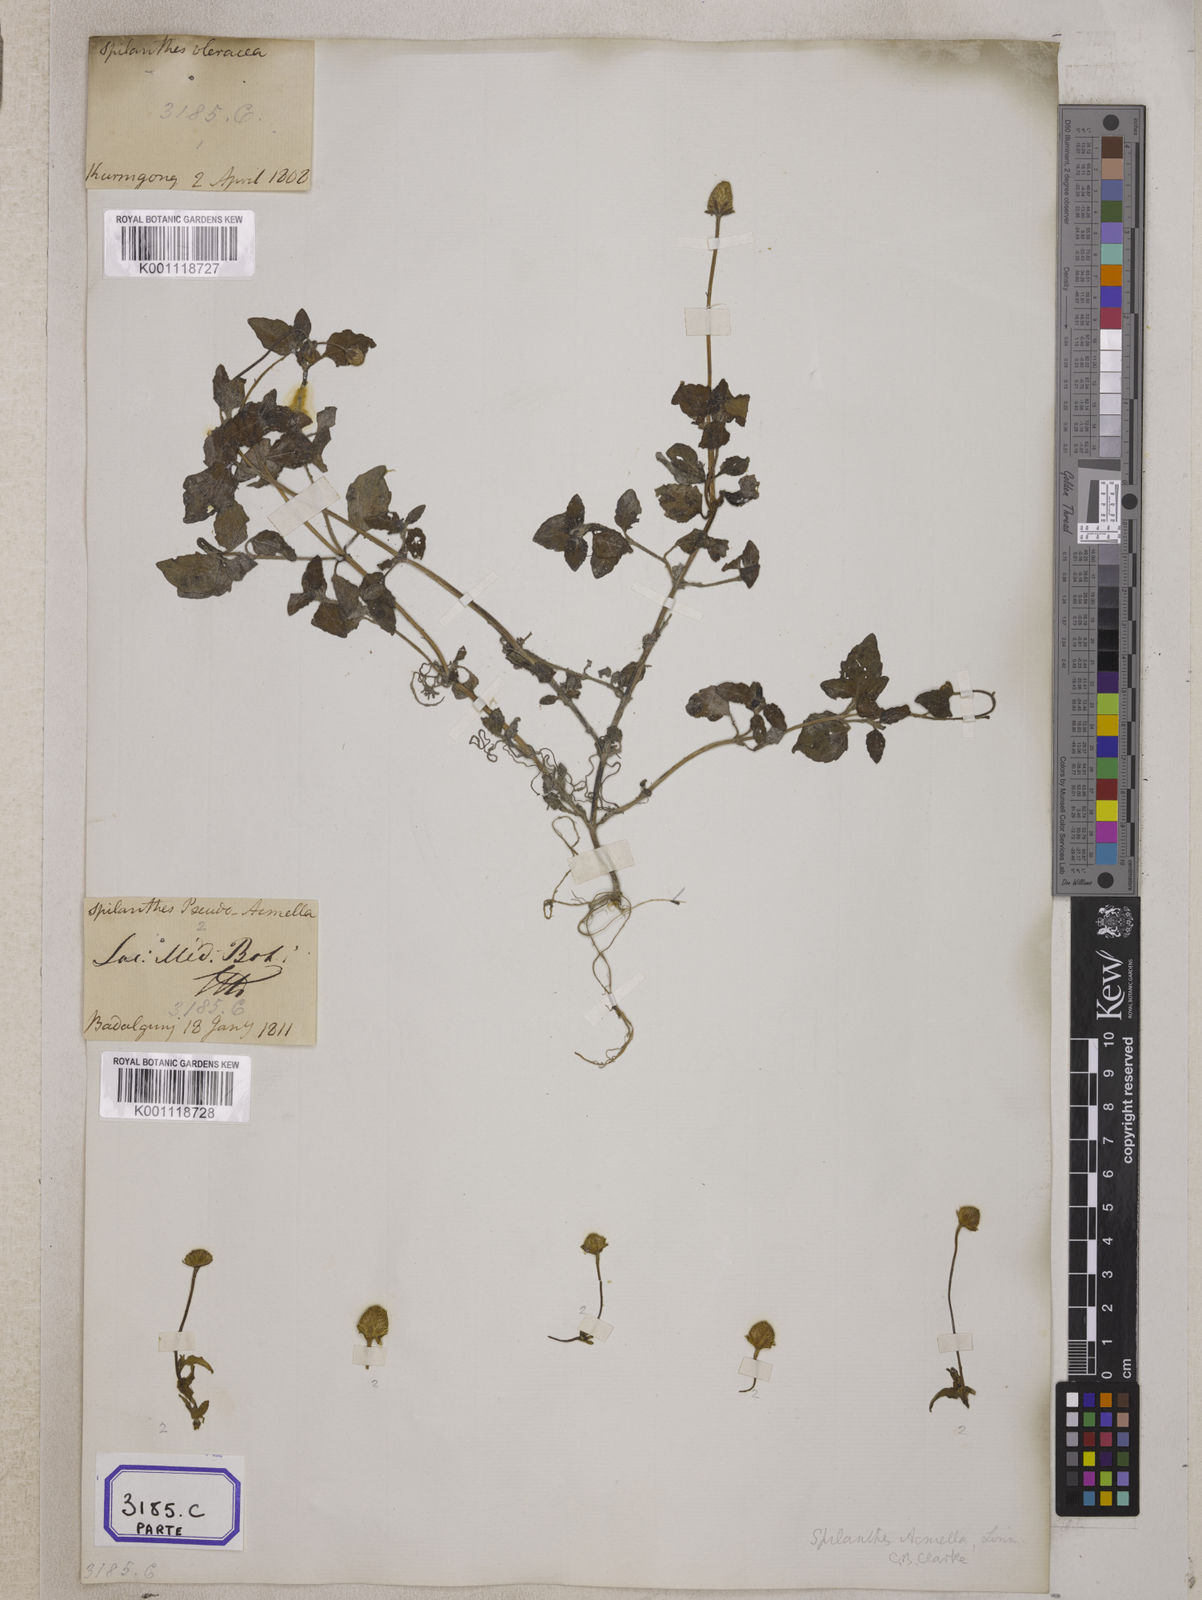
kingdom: Plantae
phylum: Tracheophyta
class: Magnoliopsida
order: Asterales
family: Asteraceae
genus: Blainvillea
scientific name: Blainvillea acmella
